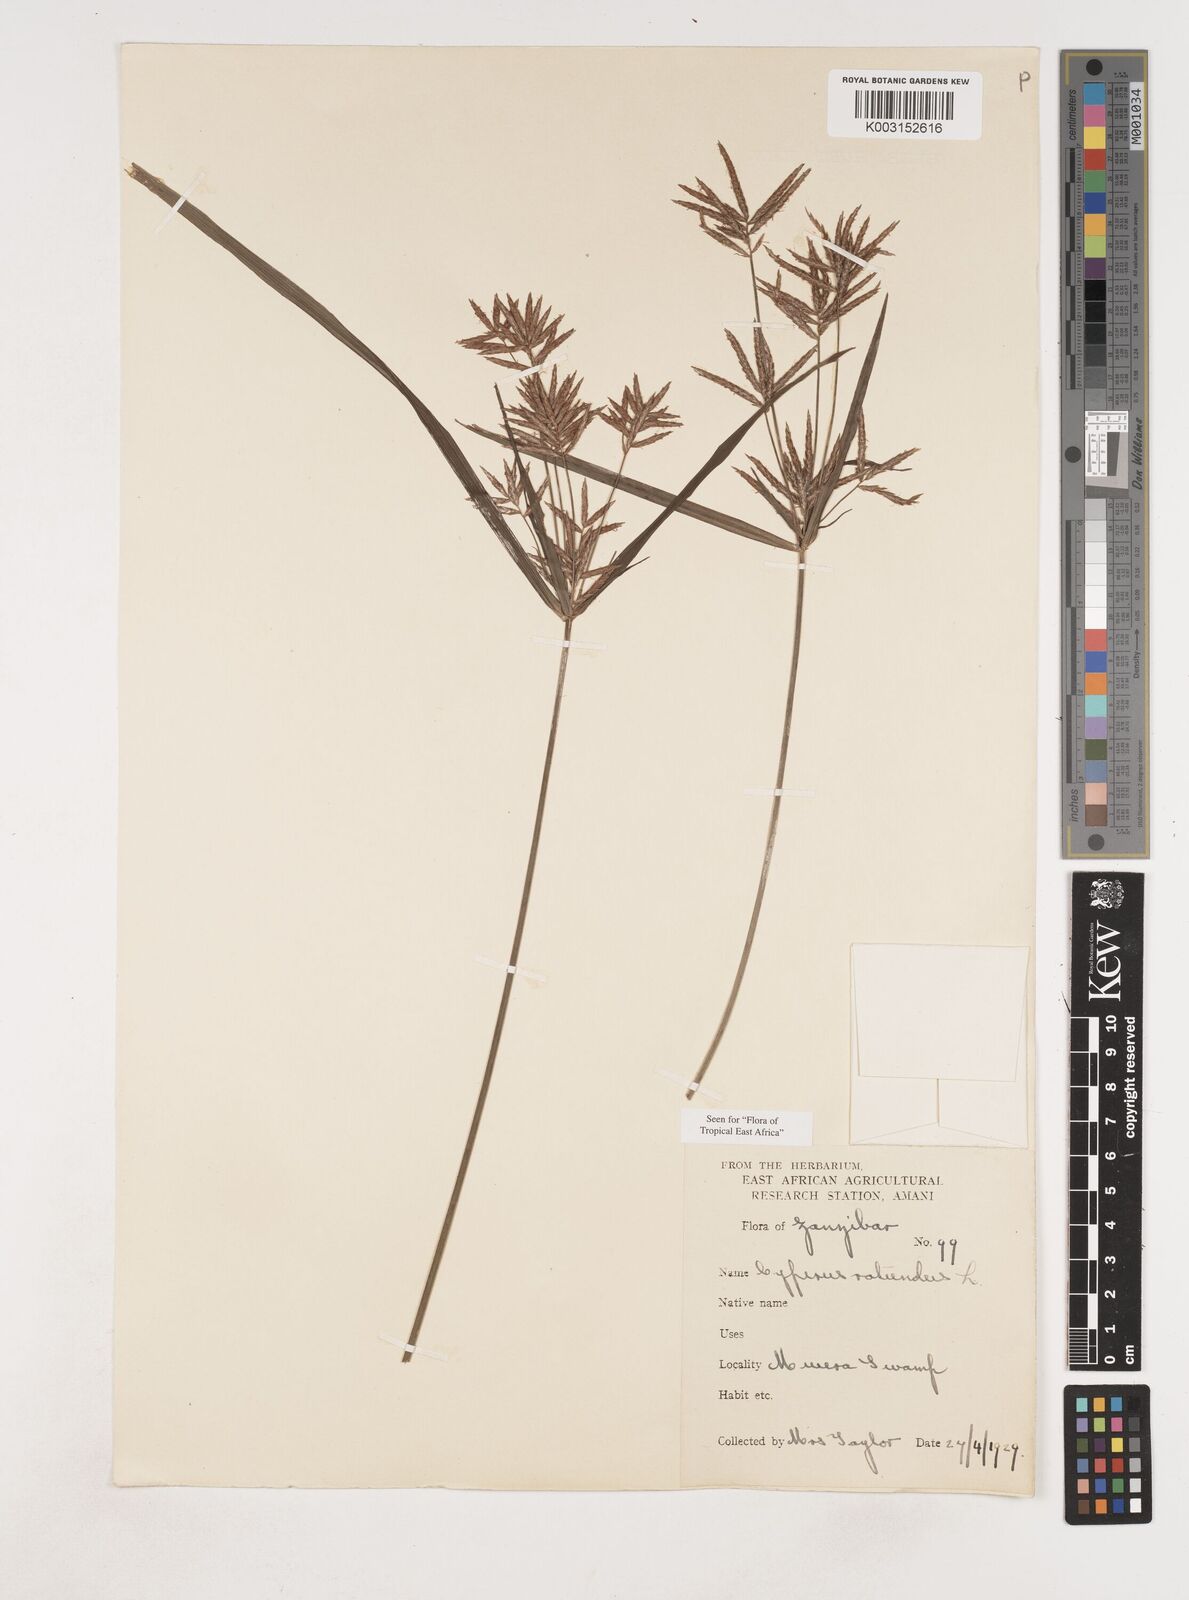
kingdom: Plantae
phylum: Tracheophyta
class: Liliopsida
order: Poales
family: Cyperaceae
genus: Cyperus
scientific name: Cyperus rotundus
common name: Nutgrass
